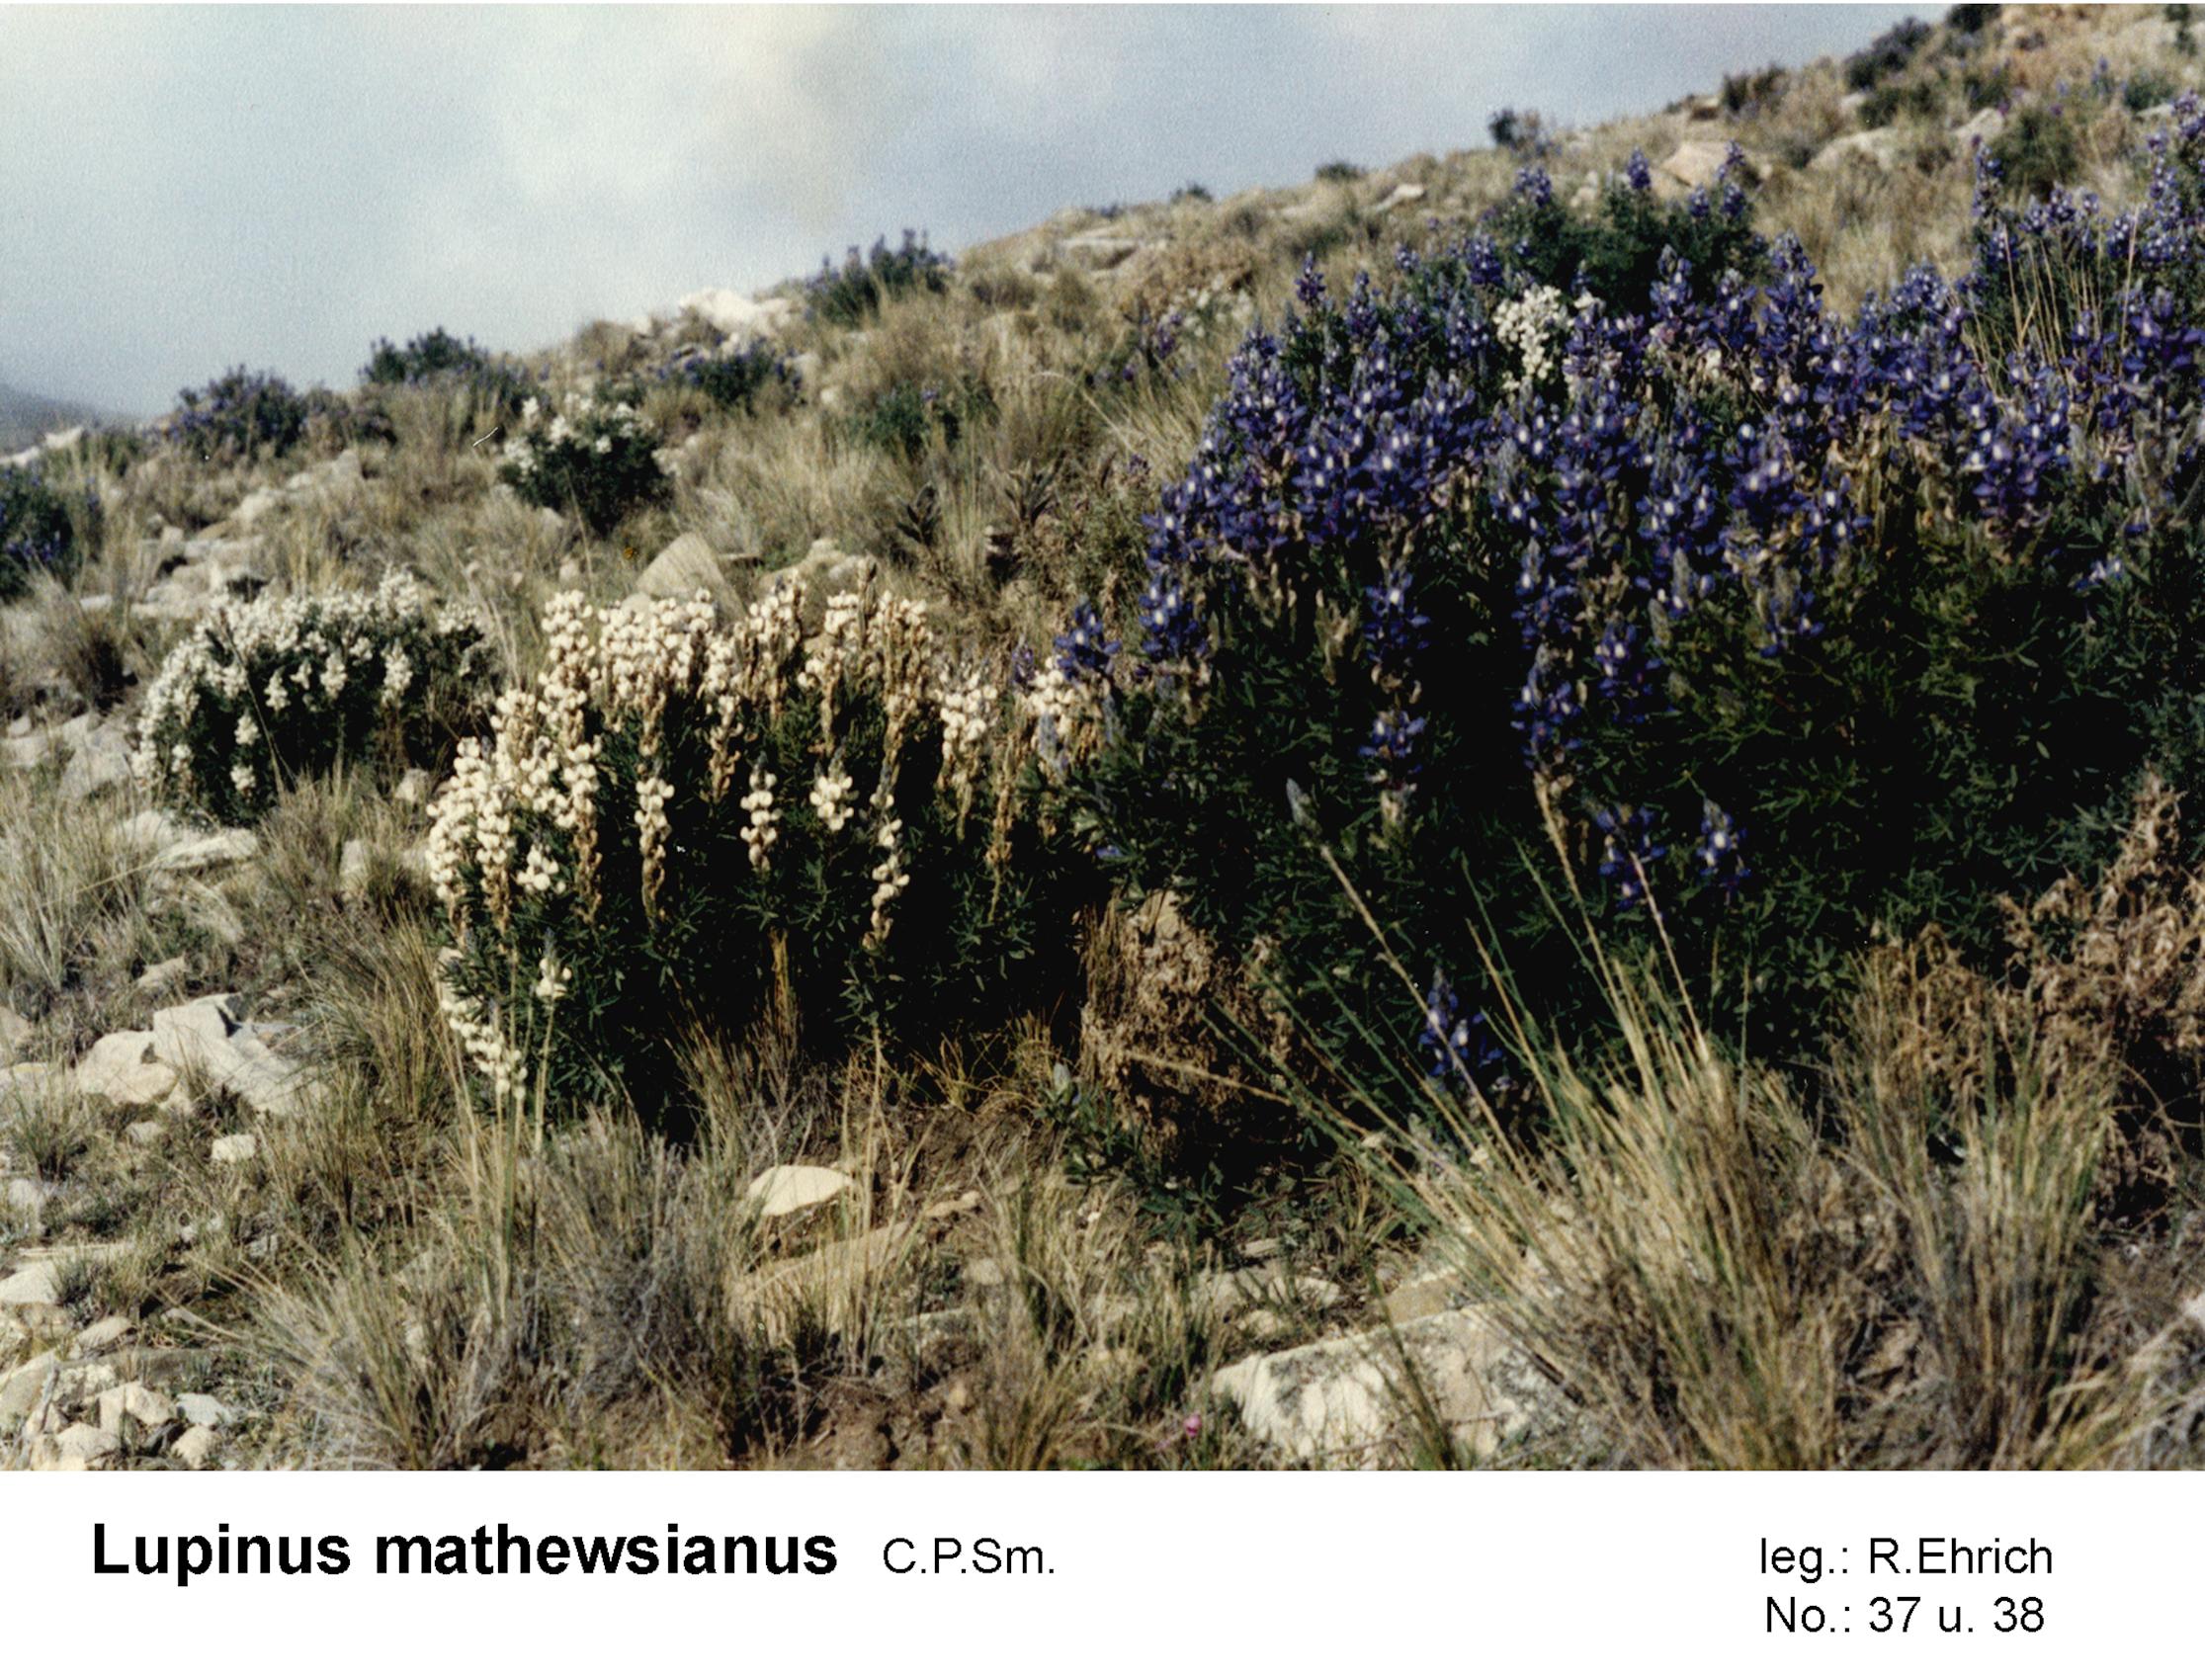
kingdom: Plantae
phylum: Tracheophyta
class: Magnoliopsida
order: Fabales
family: Fabaceae
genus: Lupinus
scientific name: Lupinus mathewsianus
